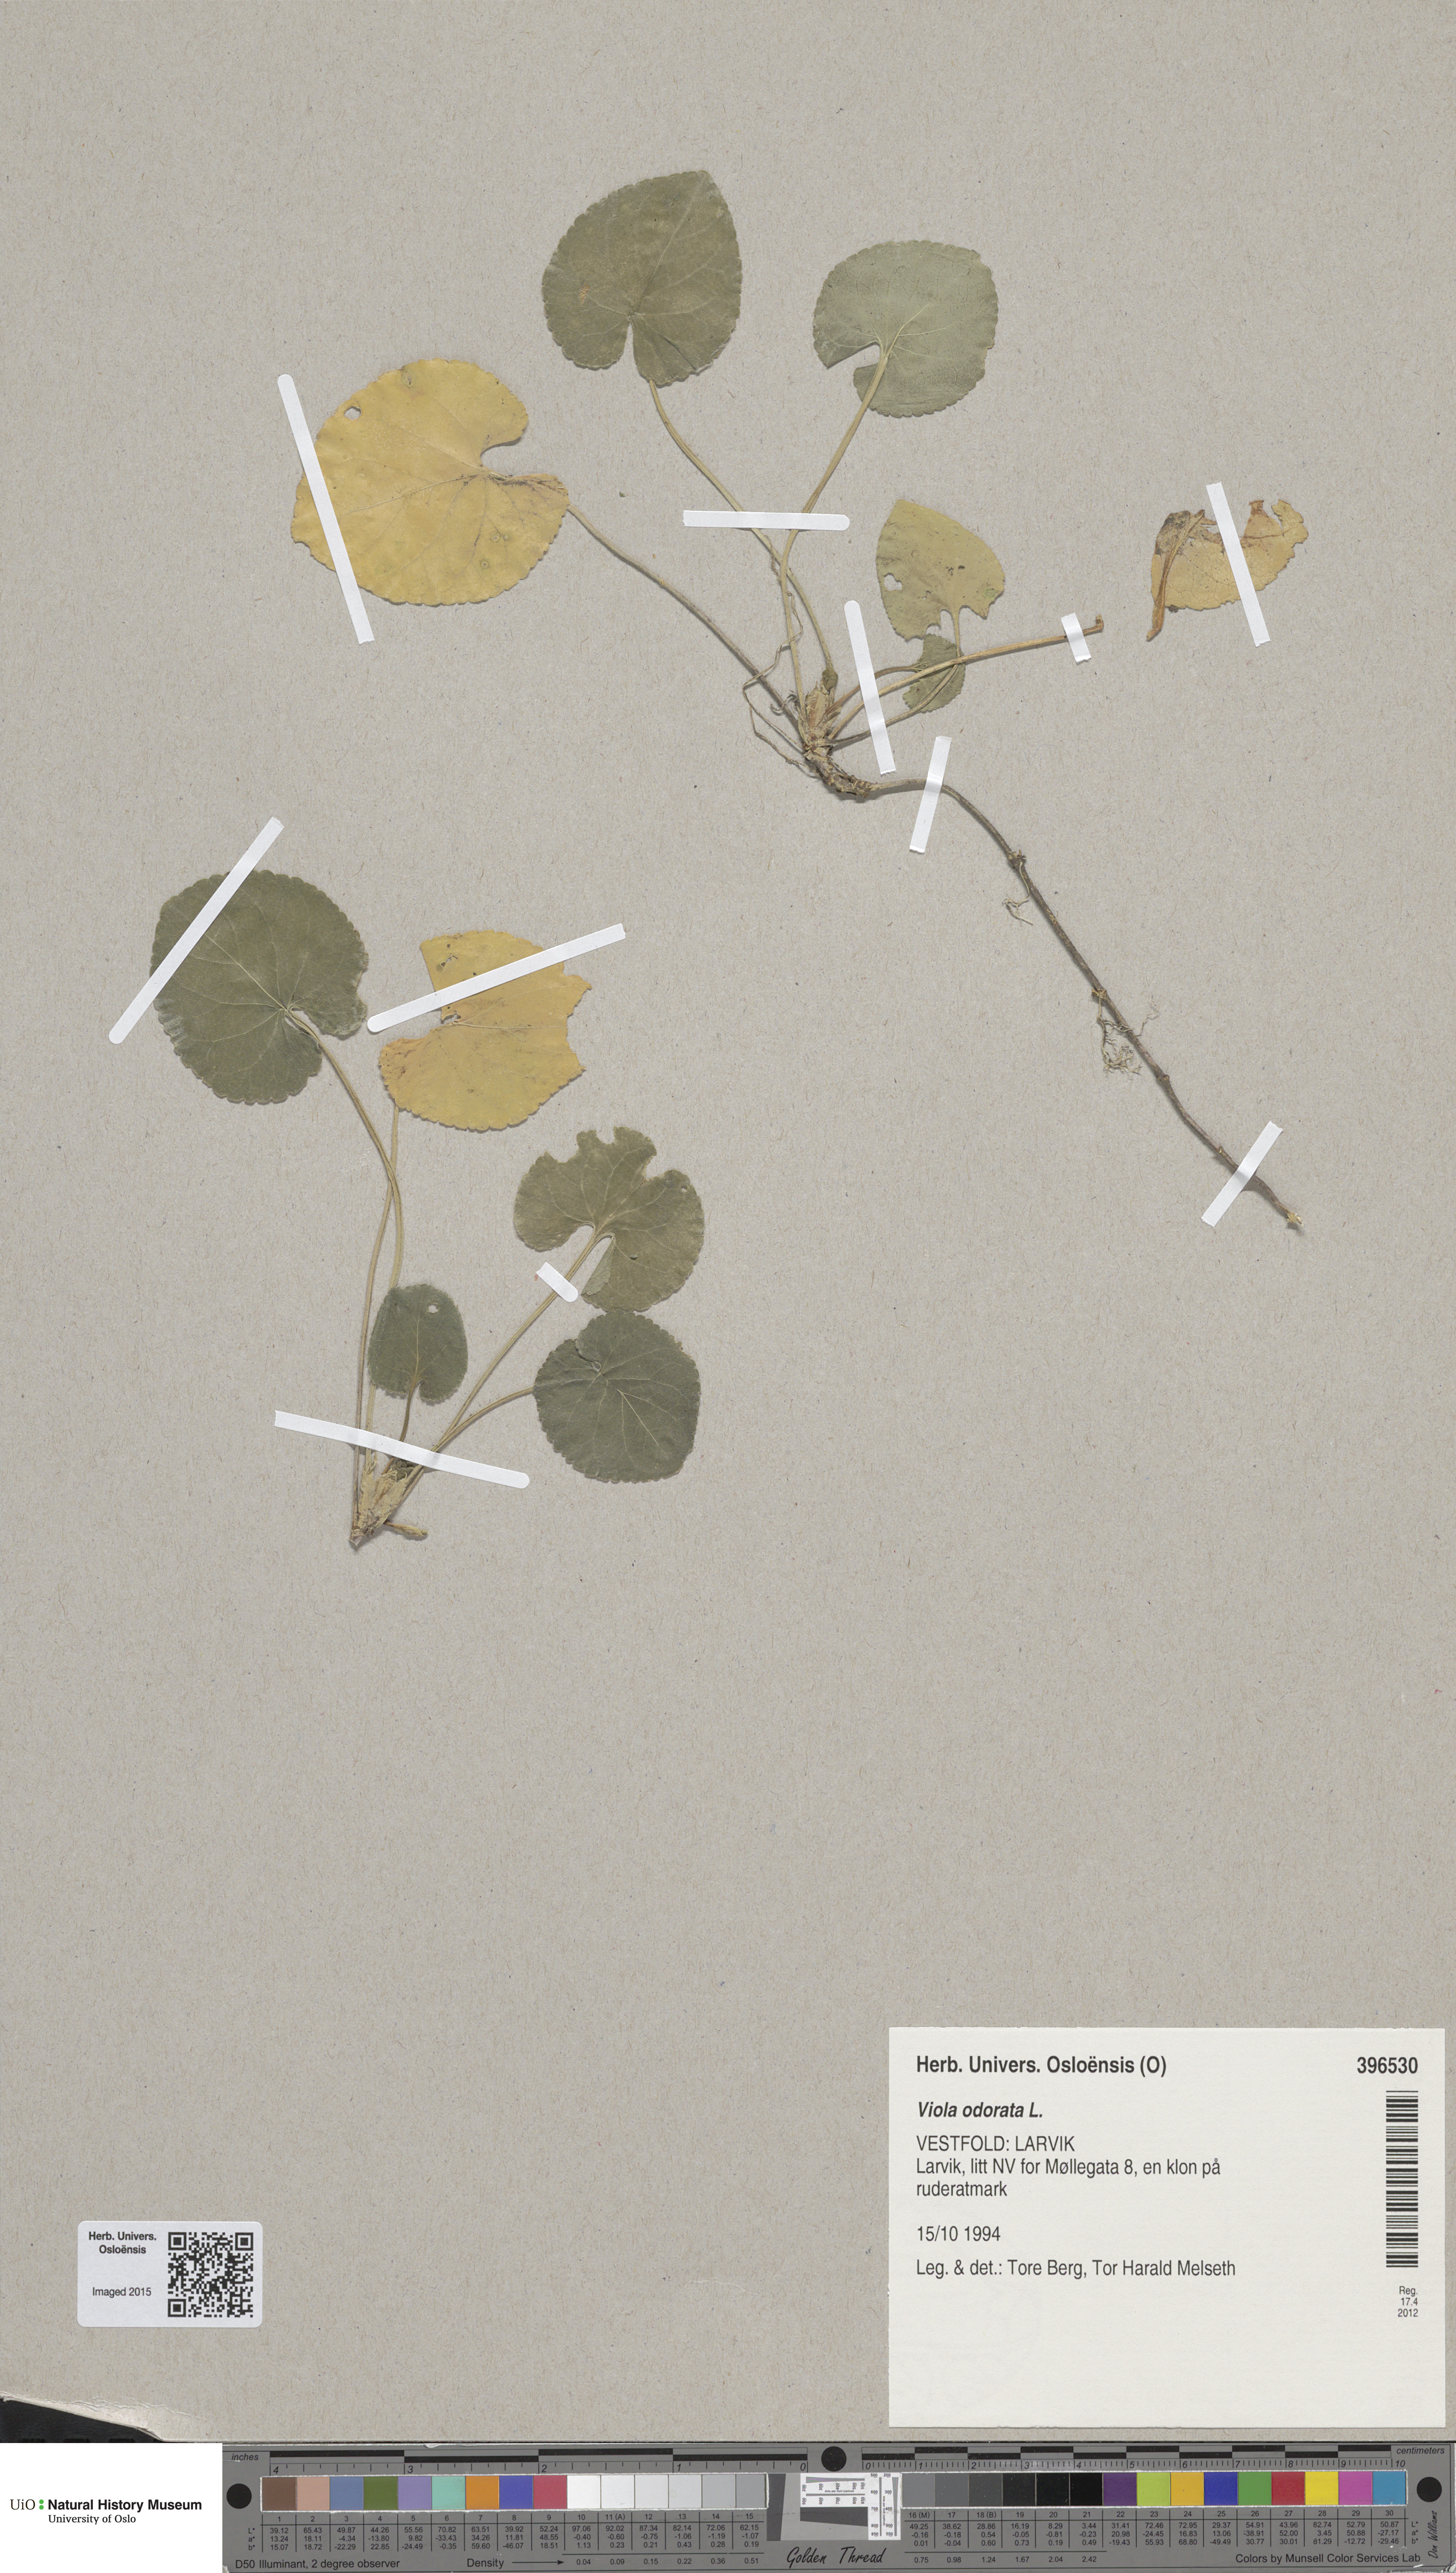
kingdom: Plantae
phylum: Tracheophyta
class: Magnoliopsida
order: Malpighiales
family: Violaceae
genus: Viola
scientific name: Viola odorata
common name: Sweet violet
